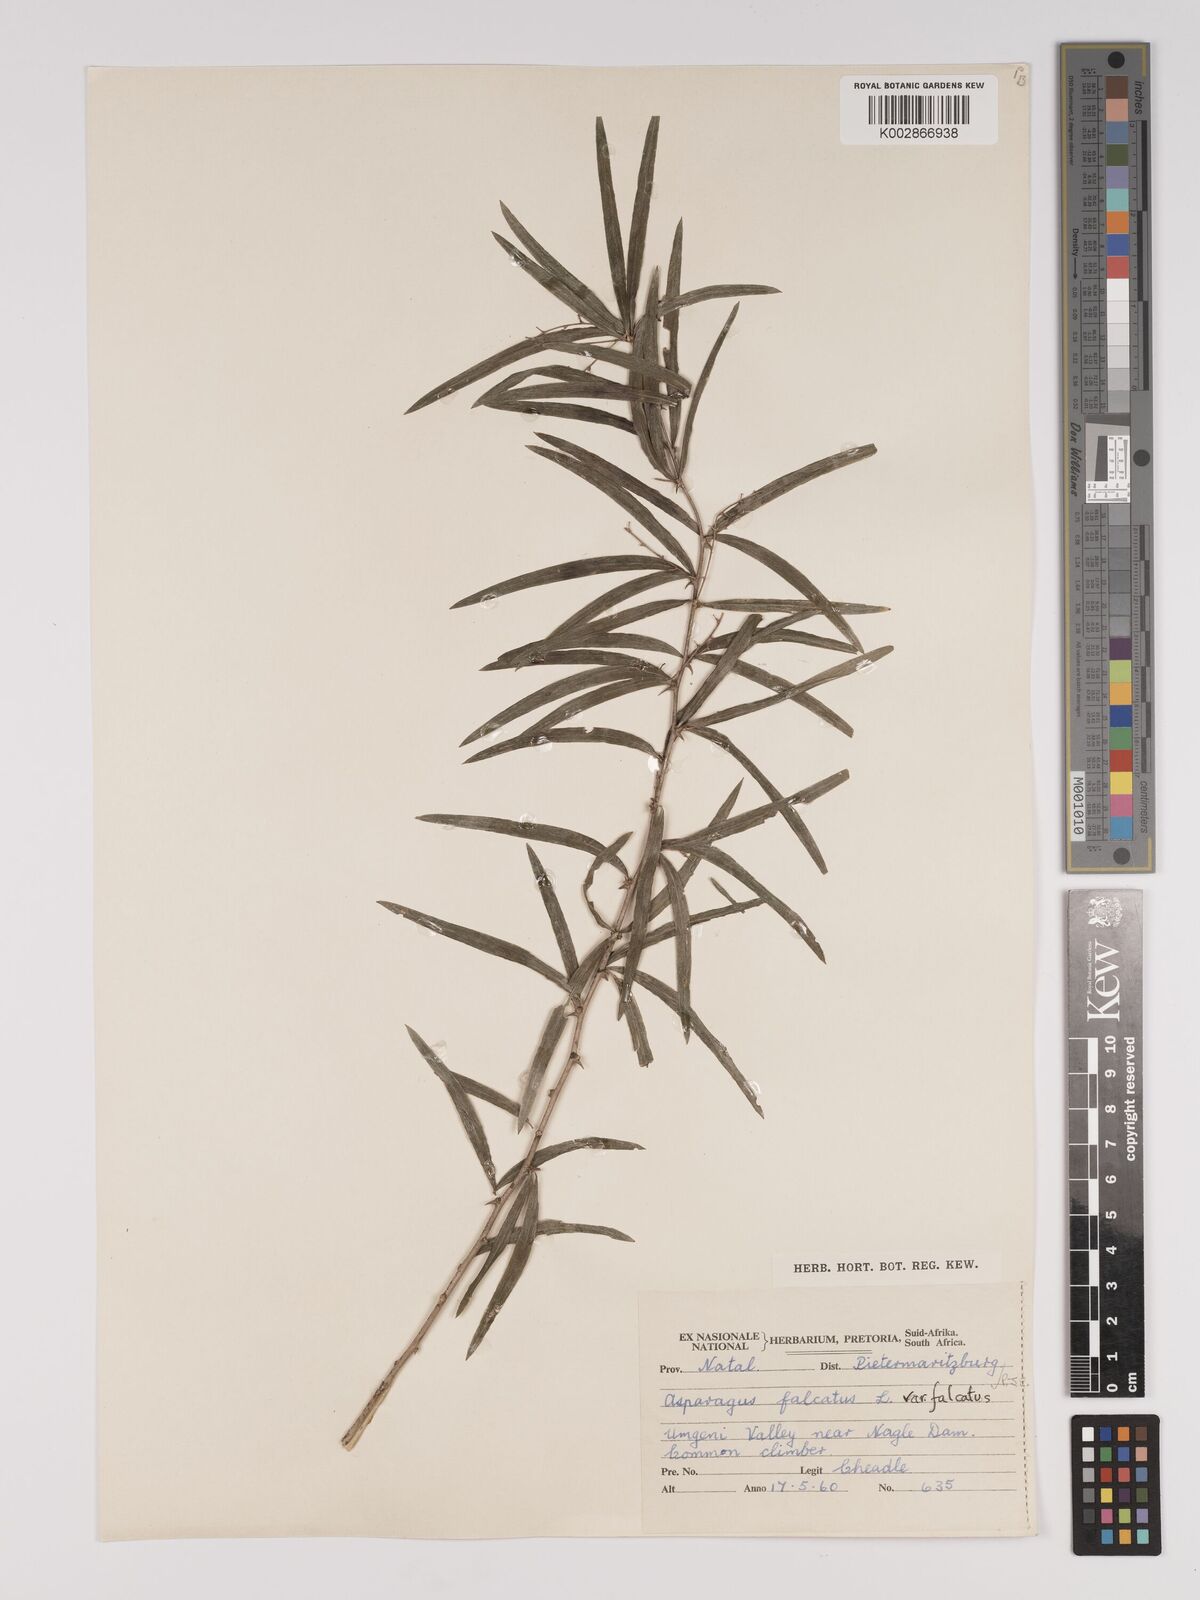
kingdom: Plantae
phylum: Tracheophyta
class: Liliopsida
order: Asparagales
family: Asparagaceae
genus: Asparagus
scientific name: Asparagus falcatus
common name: Asparagus
